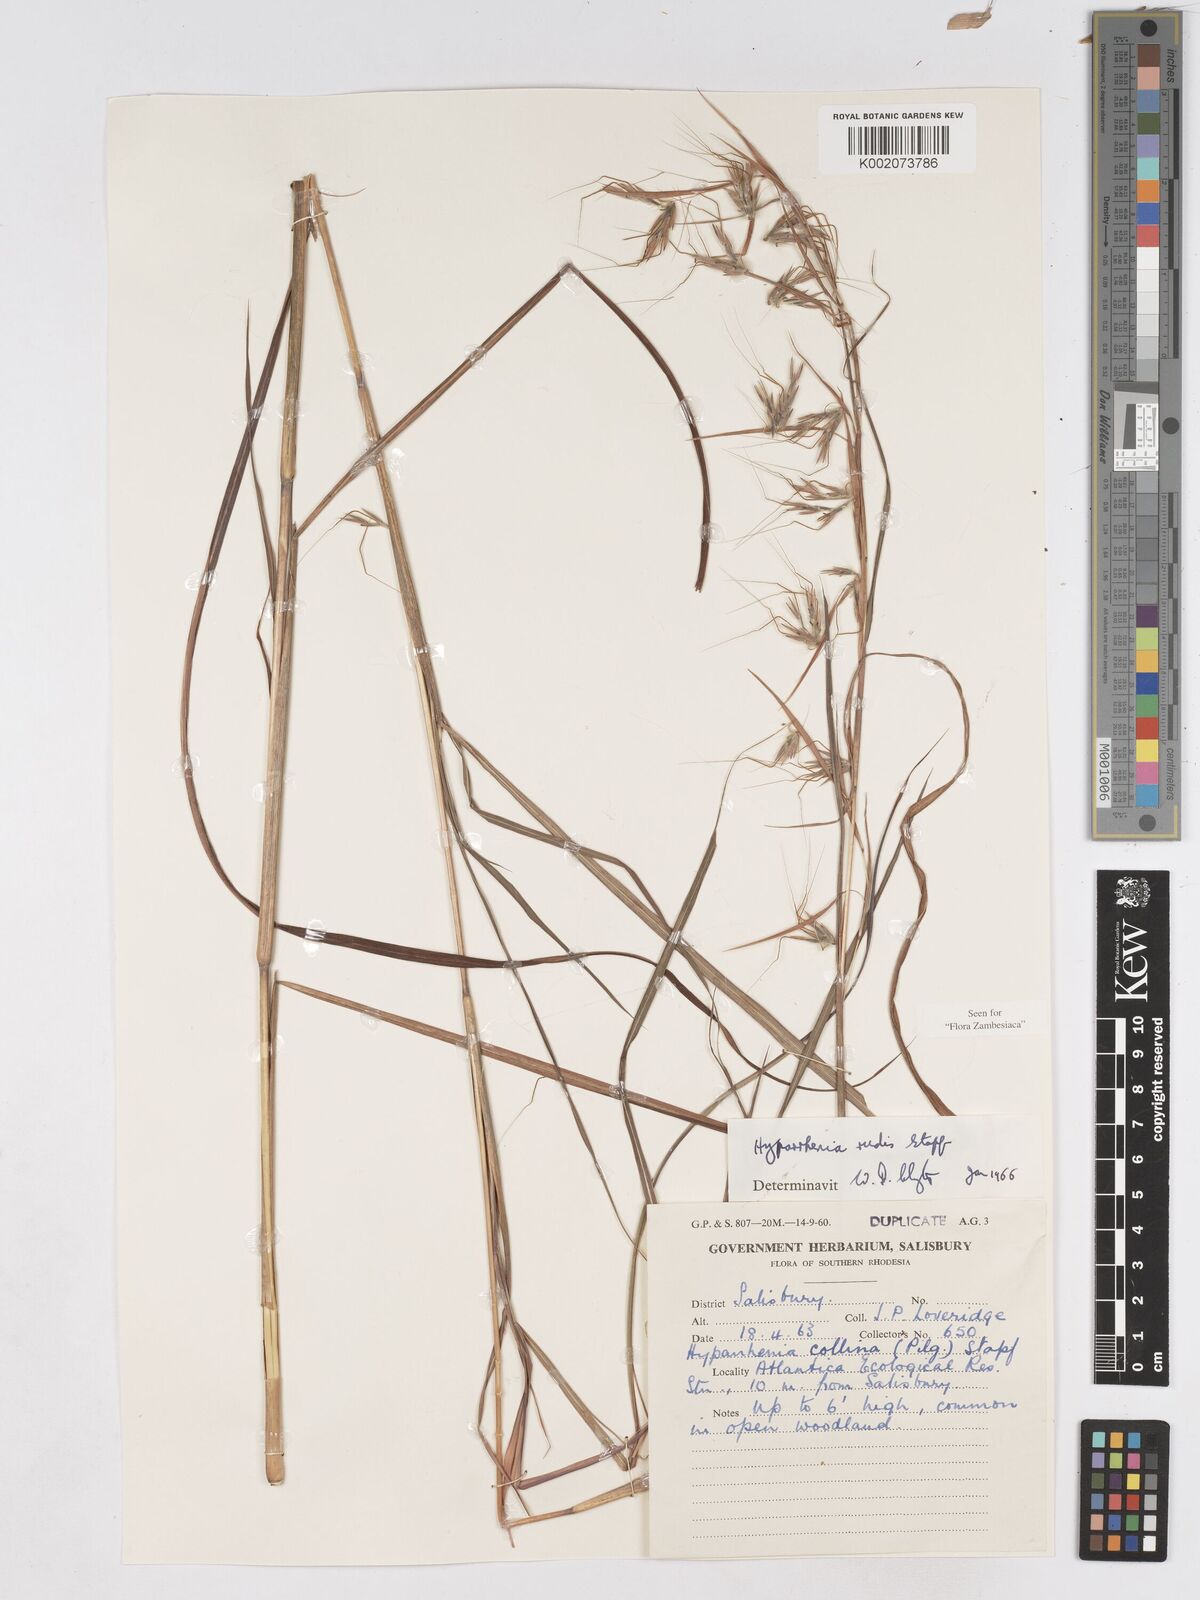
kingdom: Plantae
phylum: Tracheophyta
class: Liliopsida
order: Poales
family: Poaceae
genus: Hyparrhenia
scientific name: Hyparrhenia rudis
